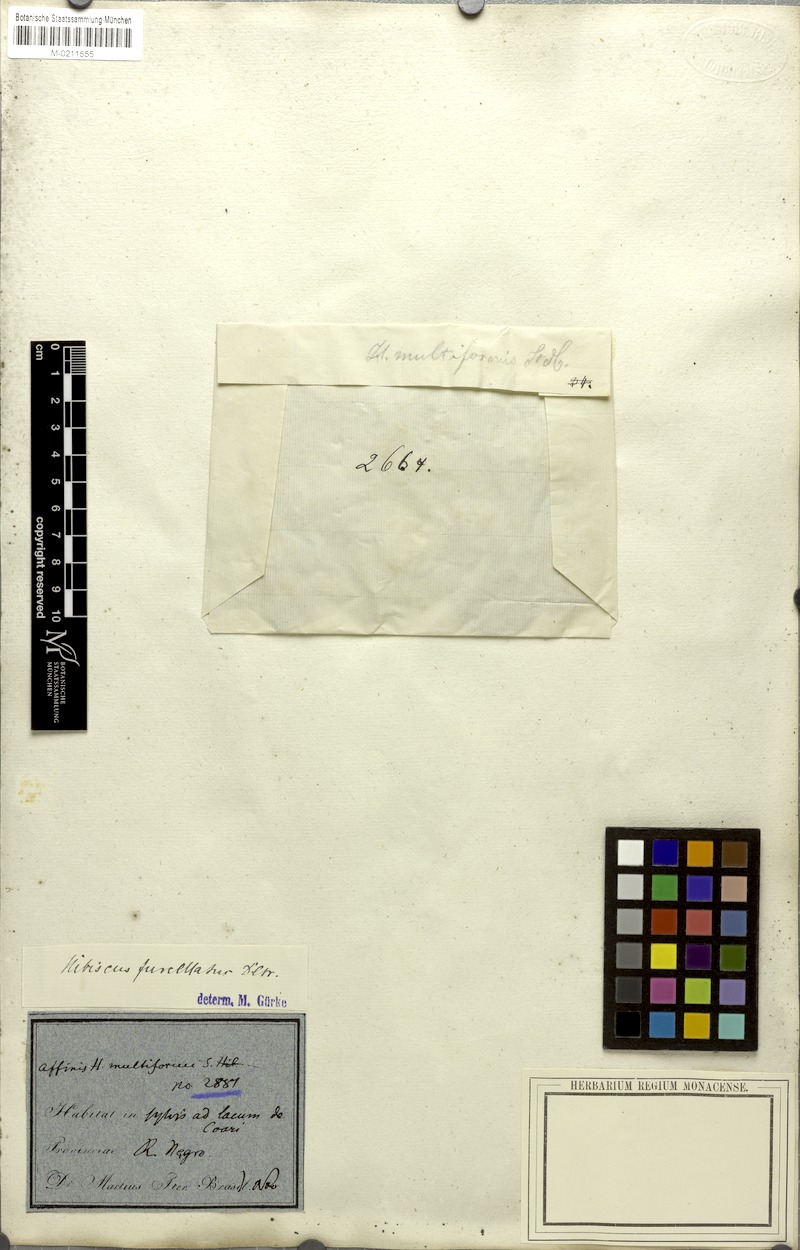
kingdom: Plantae
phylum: Tracheophyta
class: Magnoliopsida
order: Malvales
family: Malvaceae
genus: Hibiscus
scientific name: Hibiscus furcellatus
